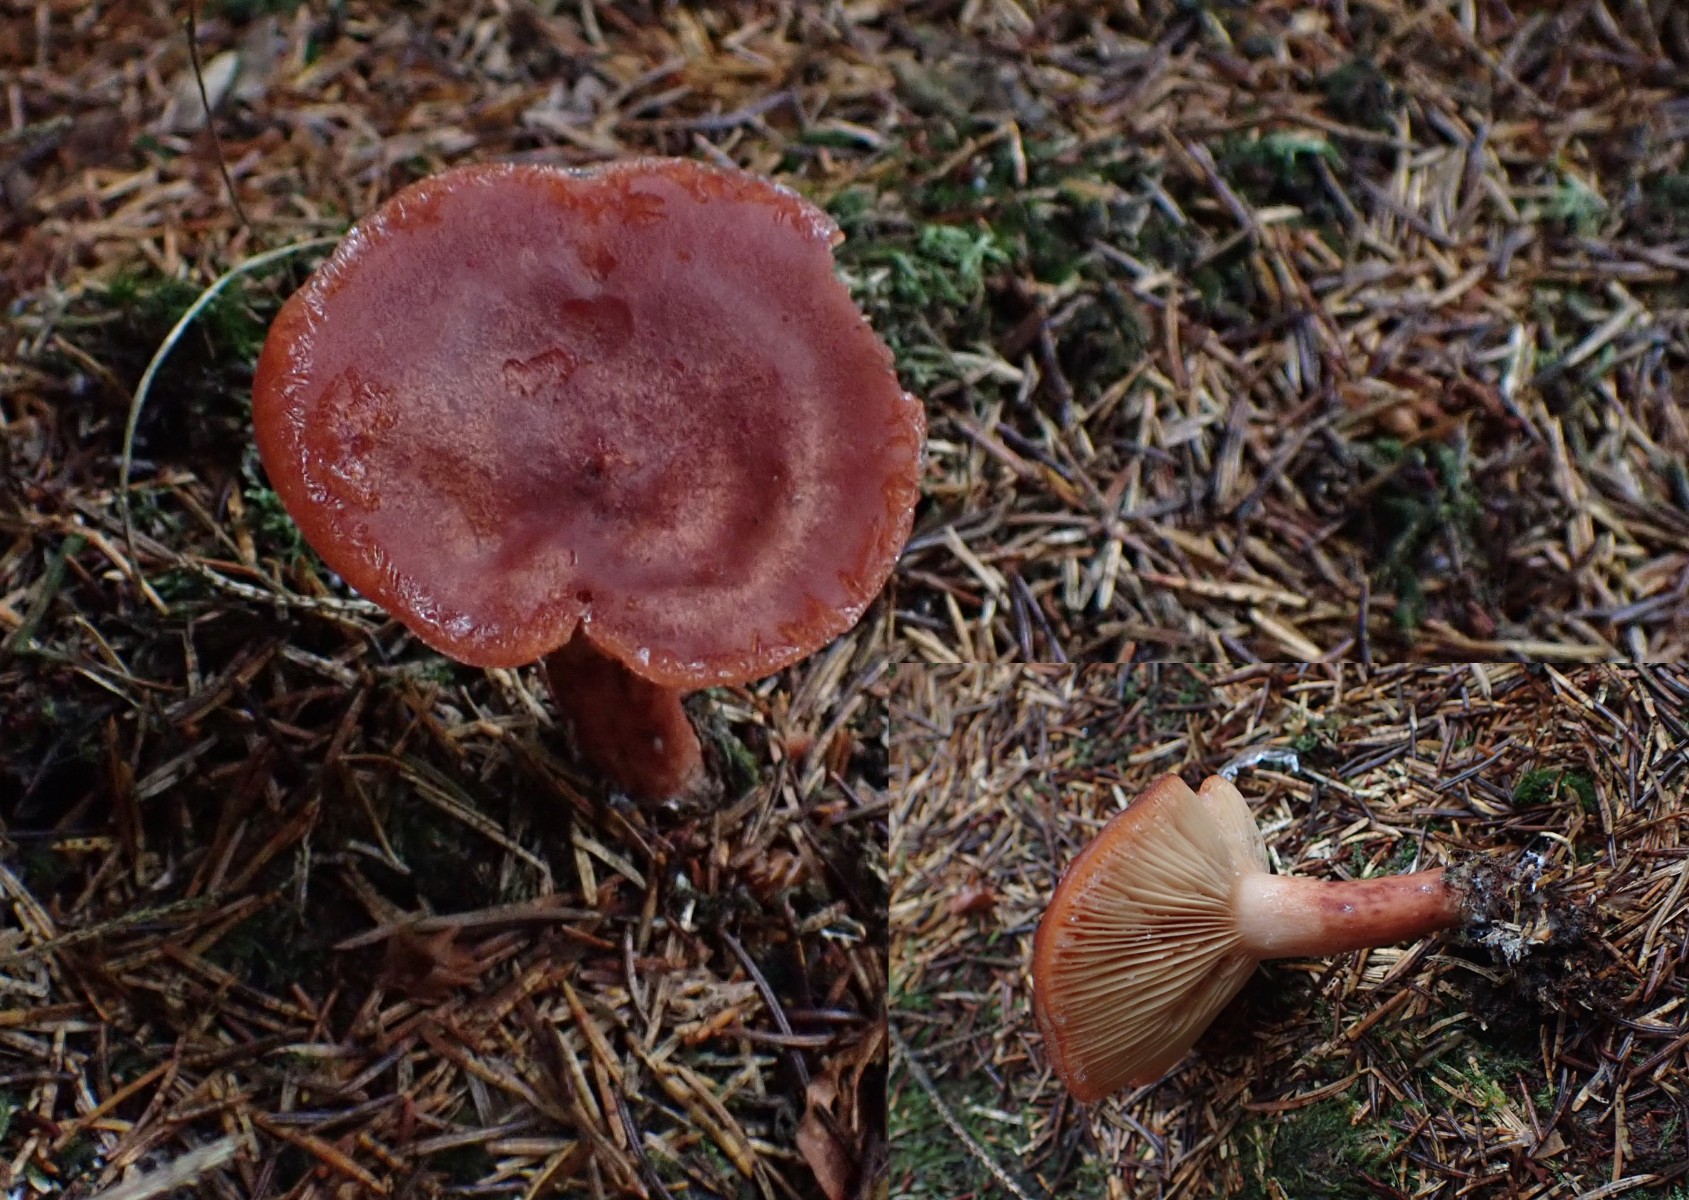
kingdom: Fungi
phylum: Basidiomycota
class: Agaricomycetes
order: Russulales
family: Russulaceae
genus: Lactarius
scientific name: Lactarius rufus
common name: rødbrun mælkehat
